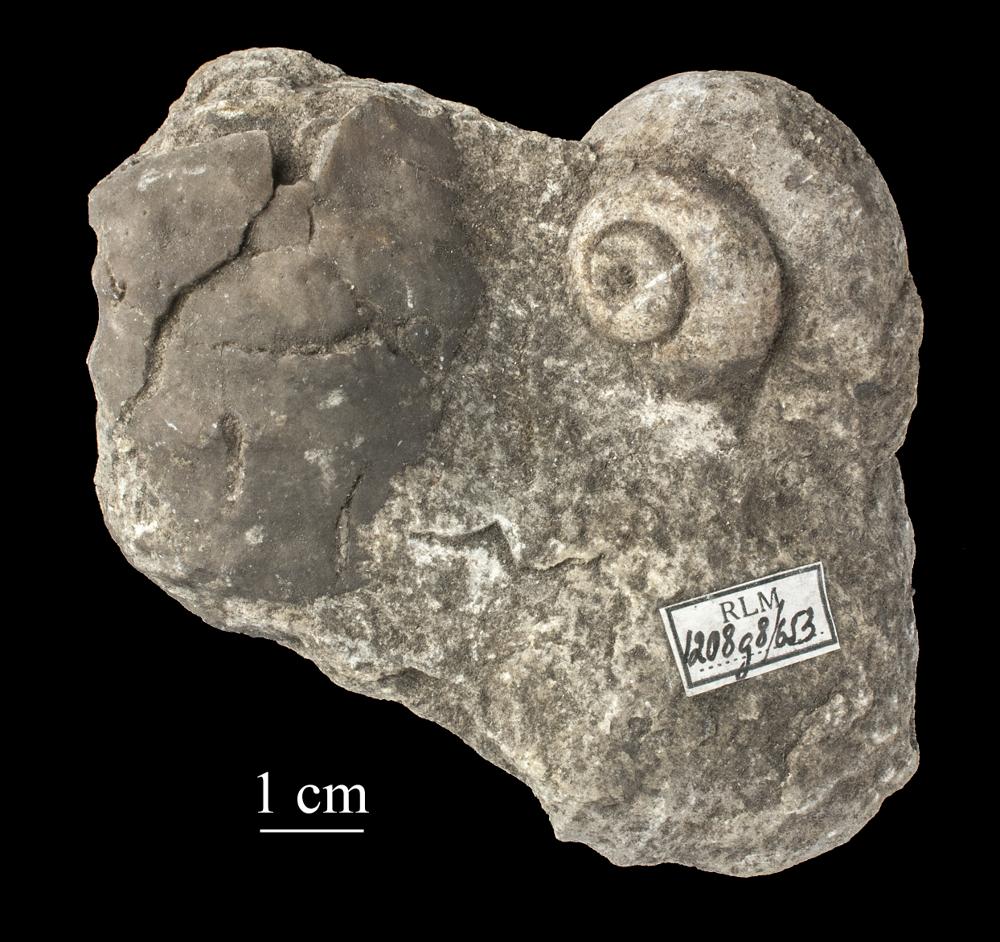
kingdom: Animalia
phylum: Mollusca
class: Gastropoda
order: Pleurotomariida
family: Phymatopleuridae
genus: Worthenia
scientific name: Worthenia
